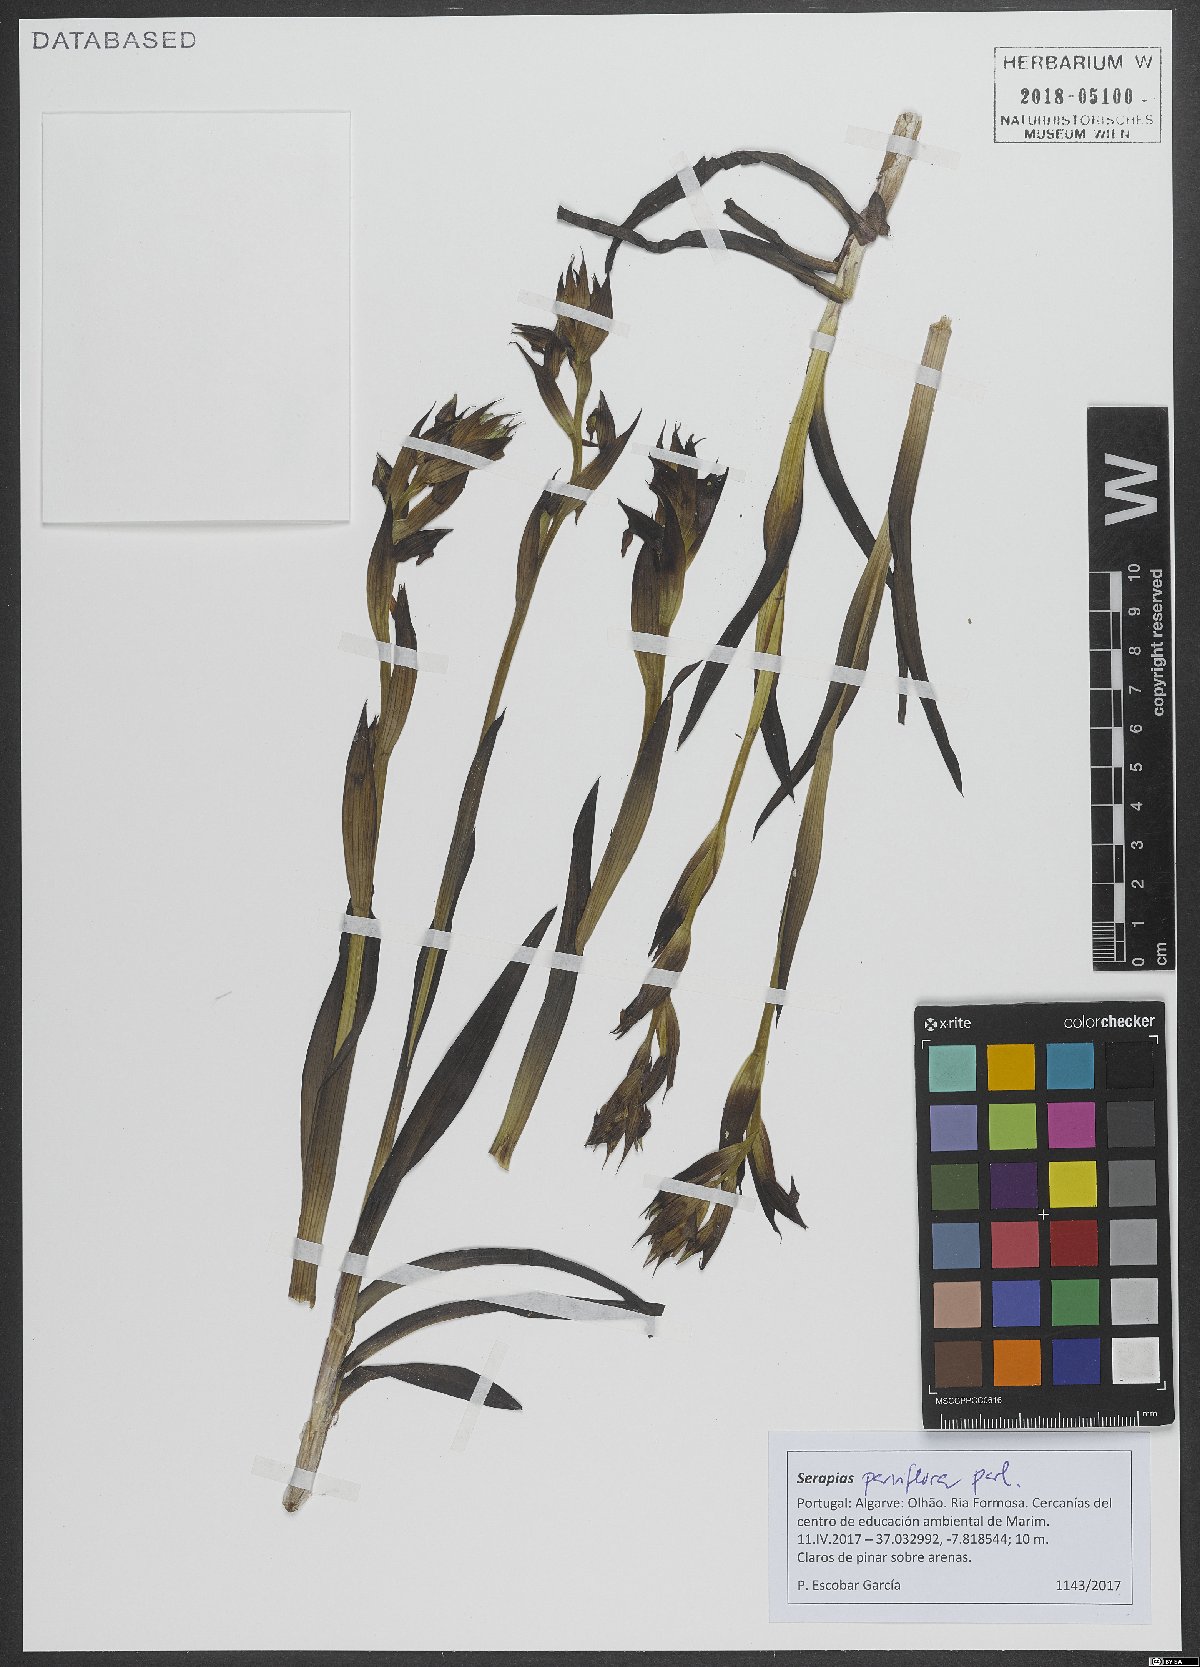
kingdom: Plantae
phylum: Tracheophyta
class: Liliopsida
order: Asparagales
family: Orchidaceae
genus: Serapias
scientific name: Serapias parviflora
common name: Small-flowered tongue-orchid
